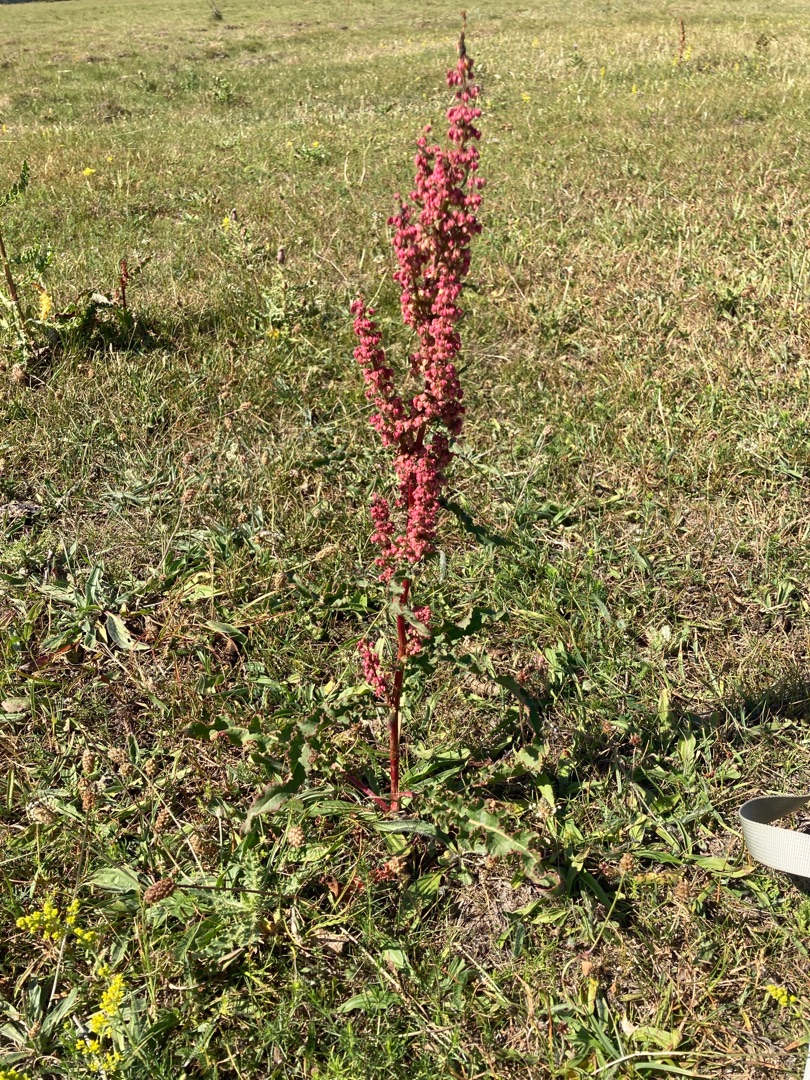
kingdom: Plantae
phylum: Tracheophyta
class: Magnoliopsida
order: Caryophyllales
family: Polygonaceae
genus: Rumex
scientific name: Rumex crispus
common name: Kruset skræppe
